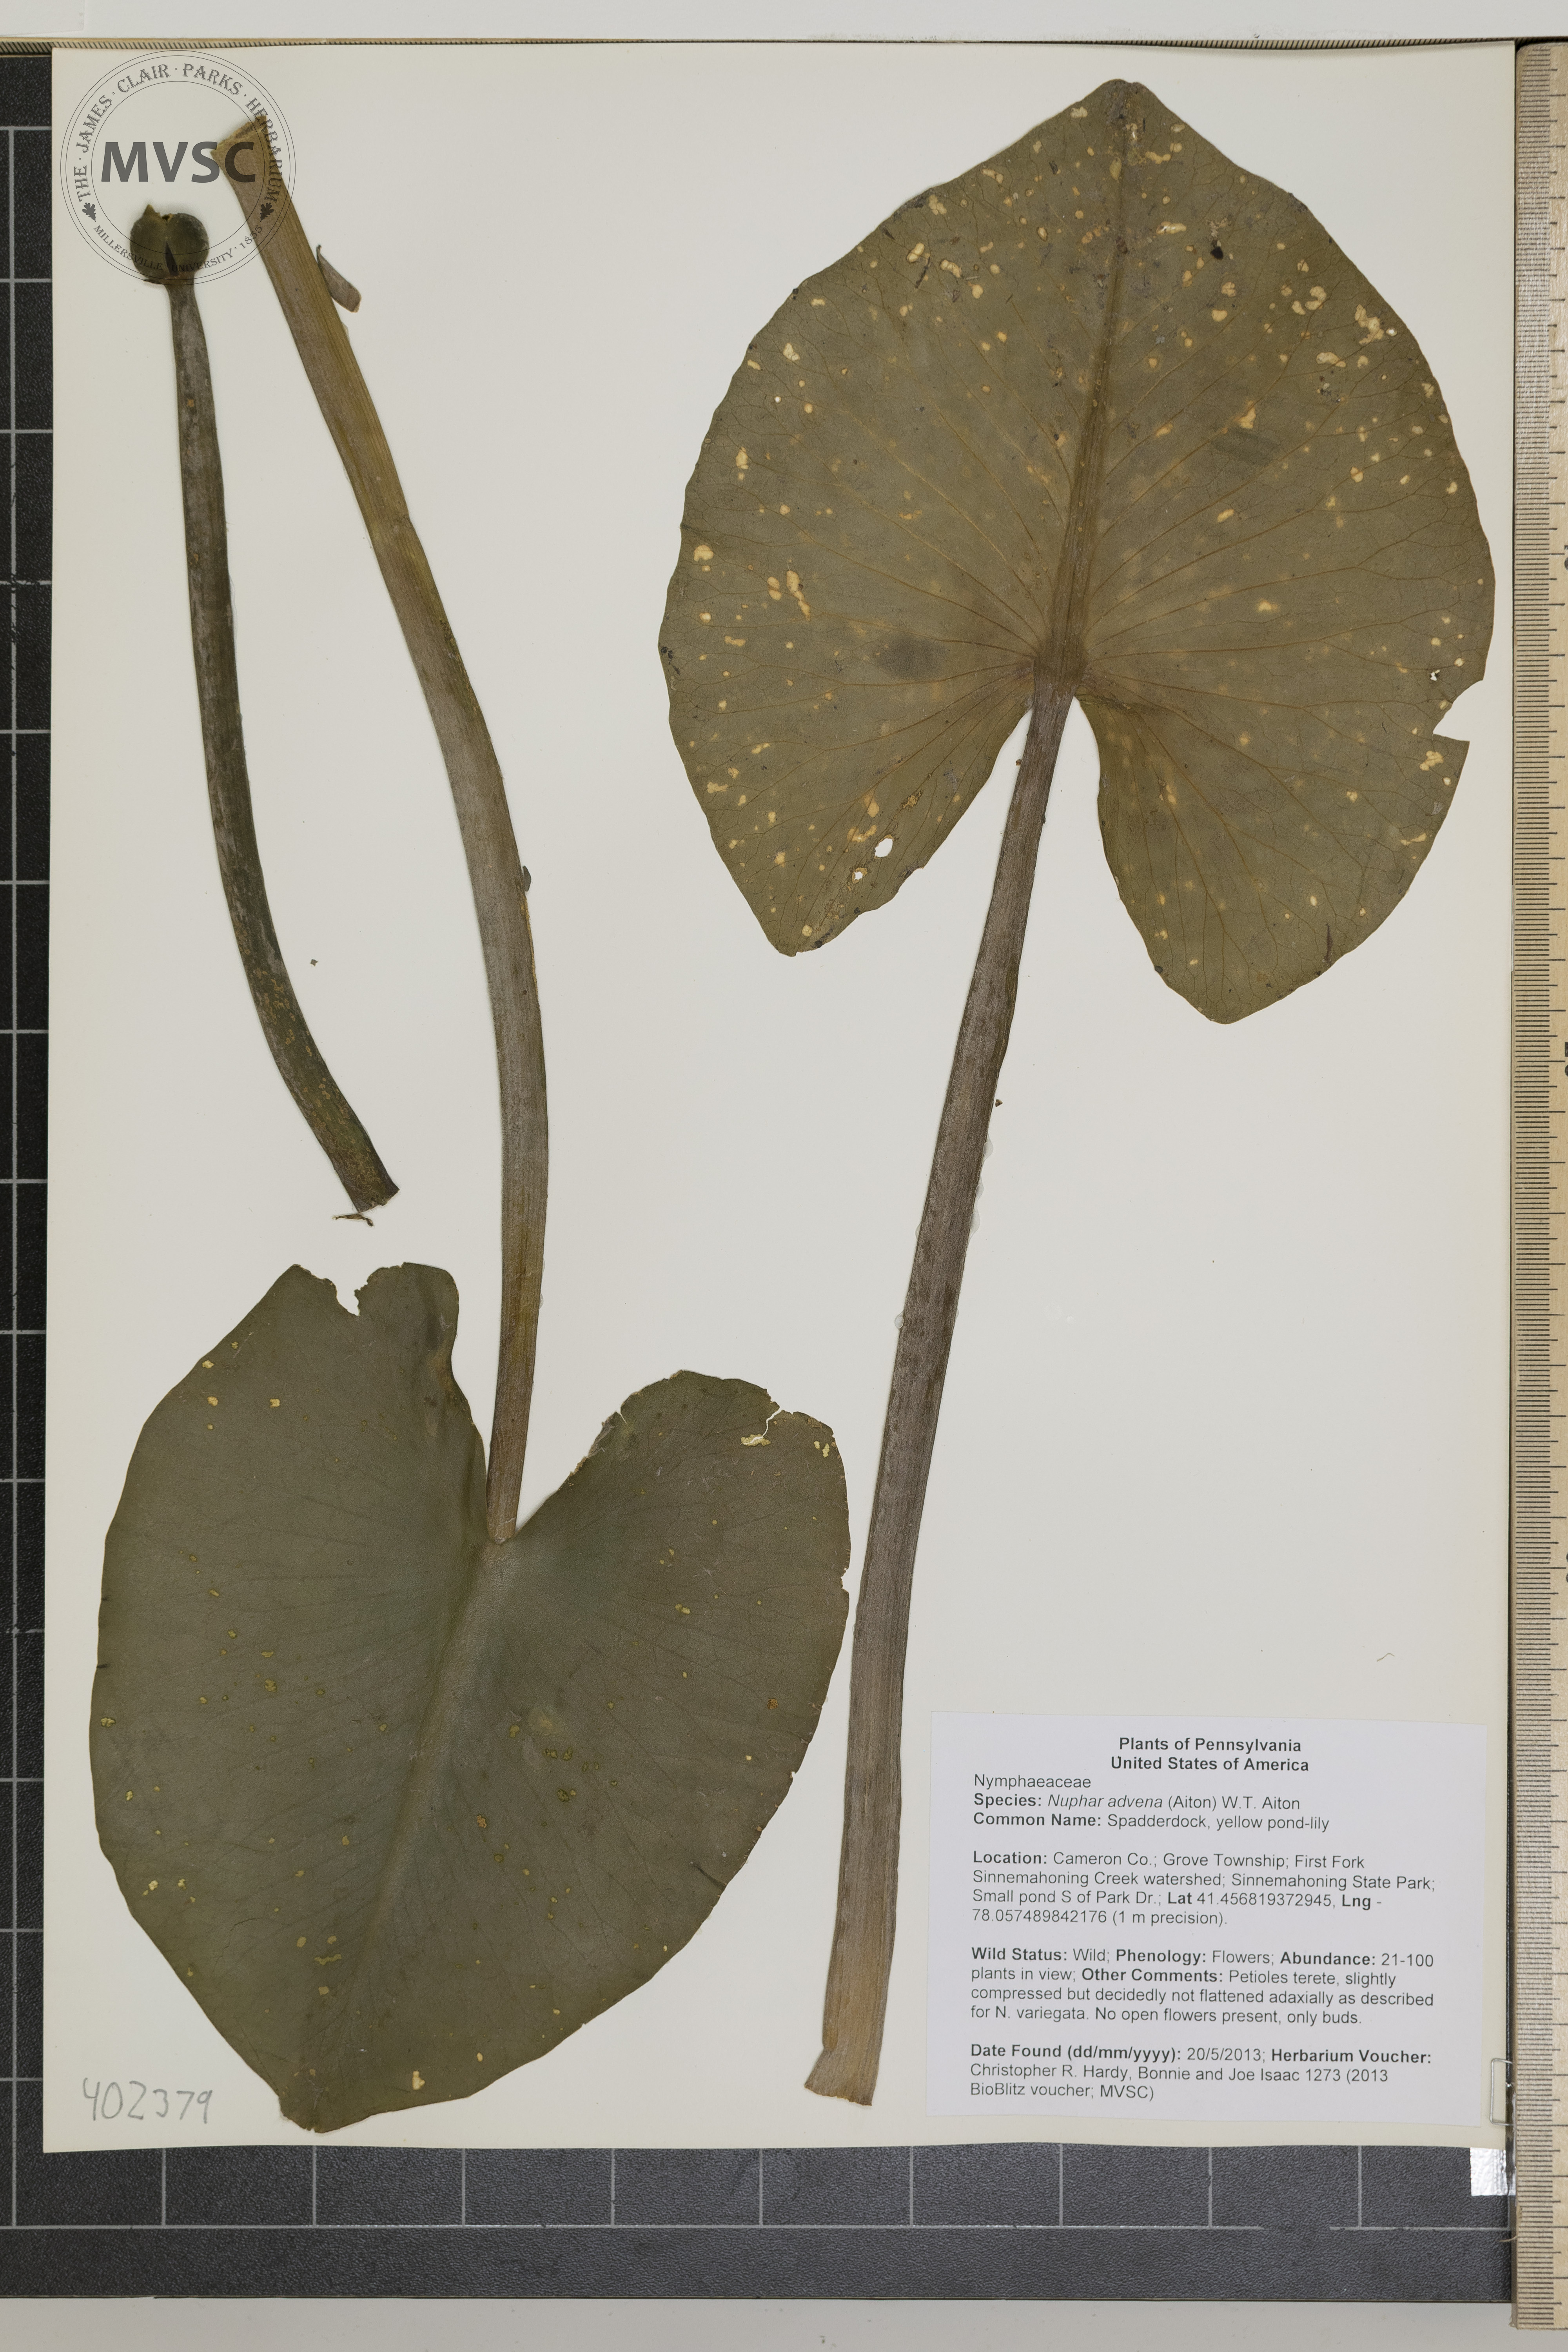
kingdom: Plantae
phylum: Tracheophyta
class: Magnoliopsida
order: Nymphaeales
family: Nymphaeaceae
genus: Nuphar
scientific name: Nuphar advena
